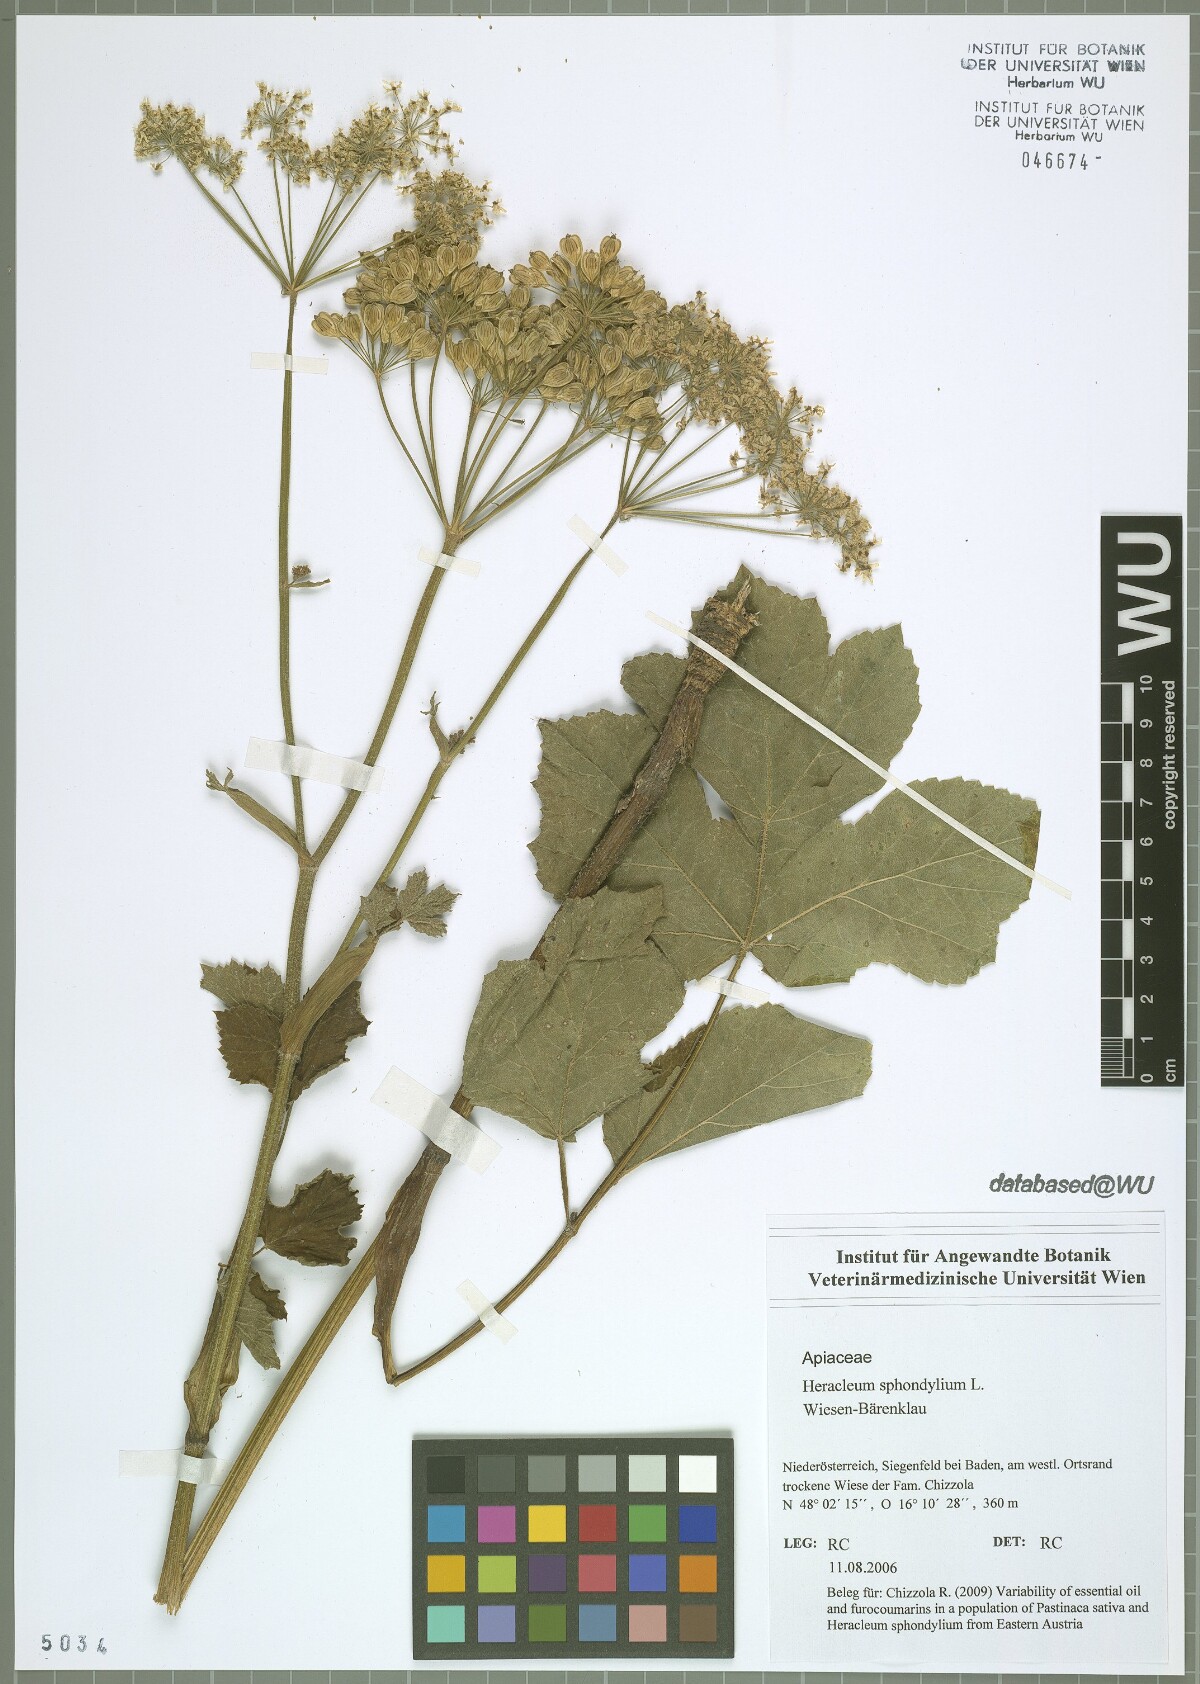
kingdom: Plantae
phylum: Tracheophyta
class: Magnoliopsida
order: Apiales
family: Apiaceae
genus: Heracleum
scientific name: Heracleum sphondylium
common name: Hogweed
